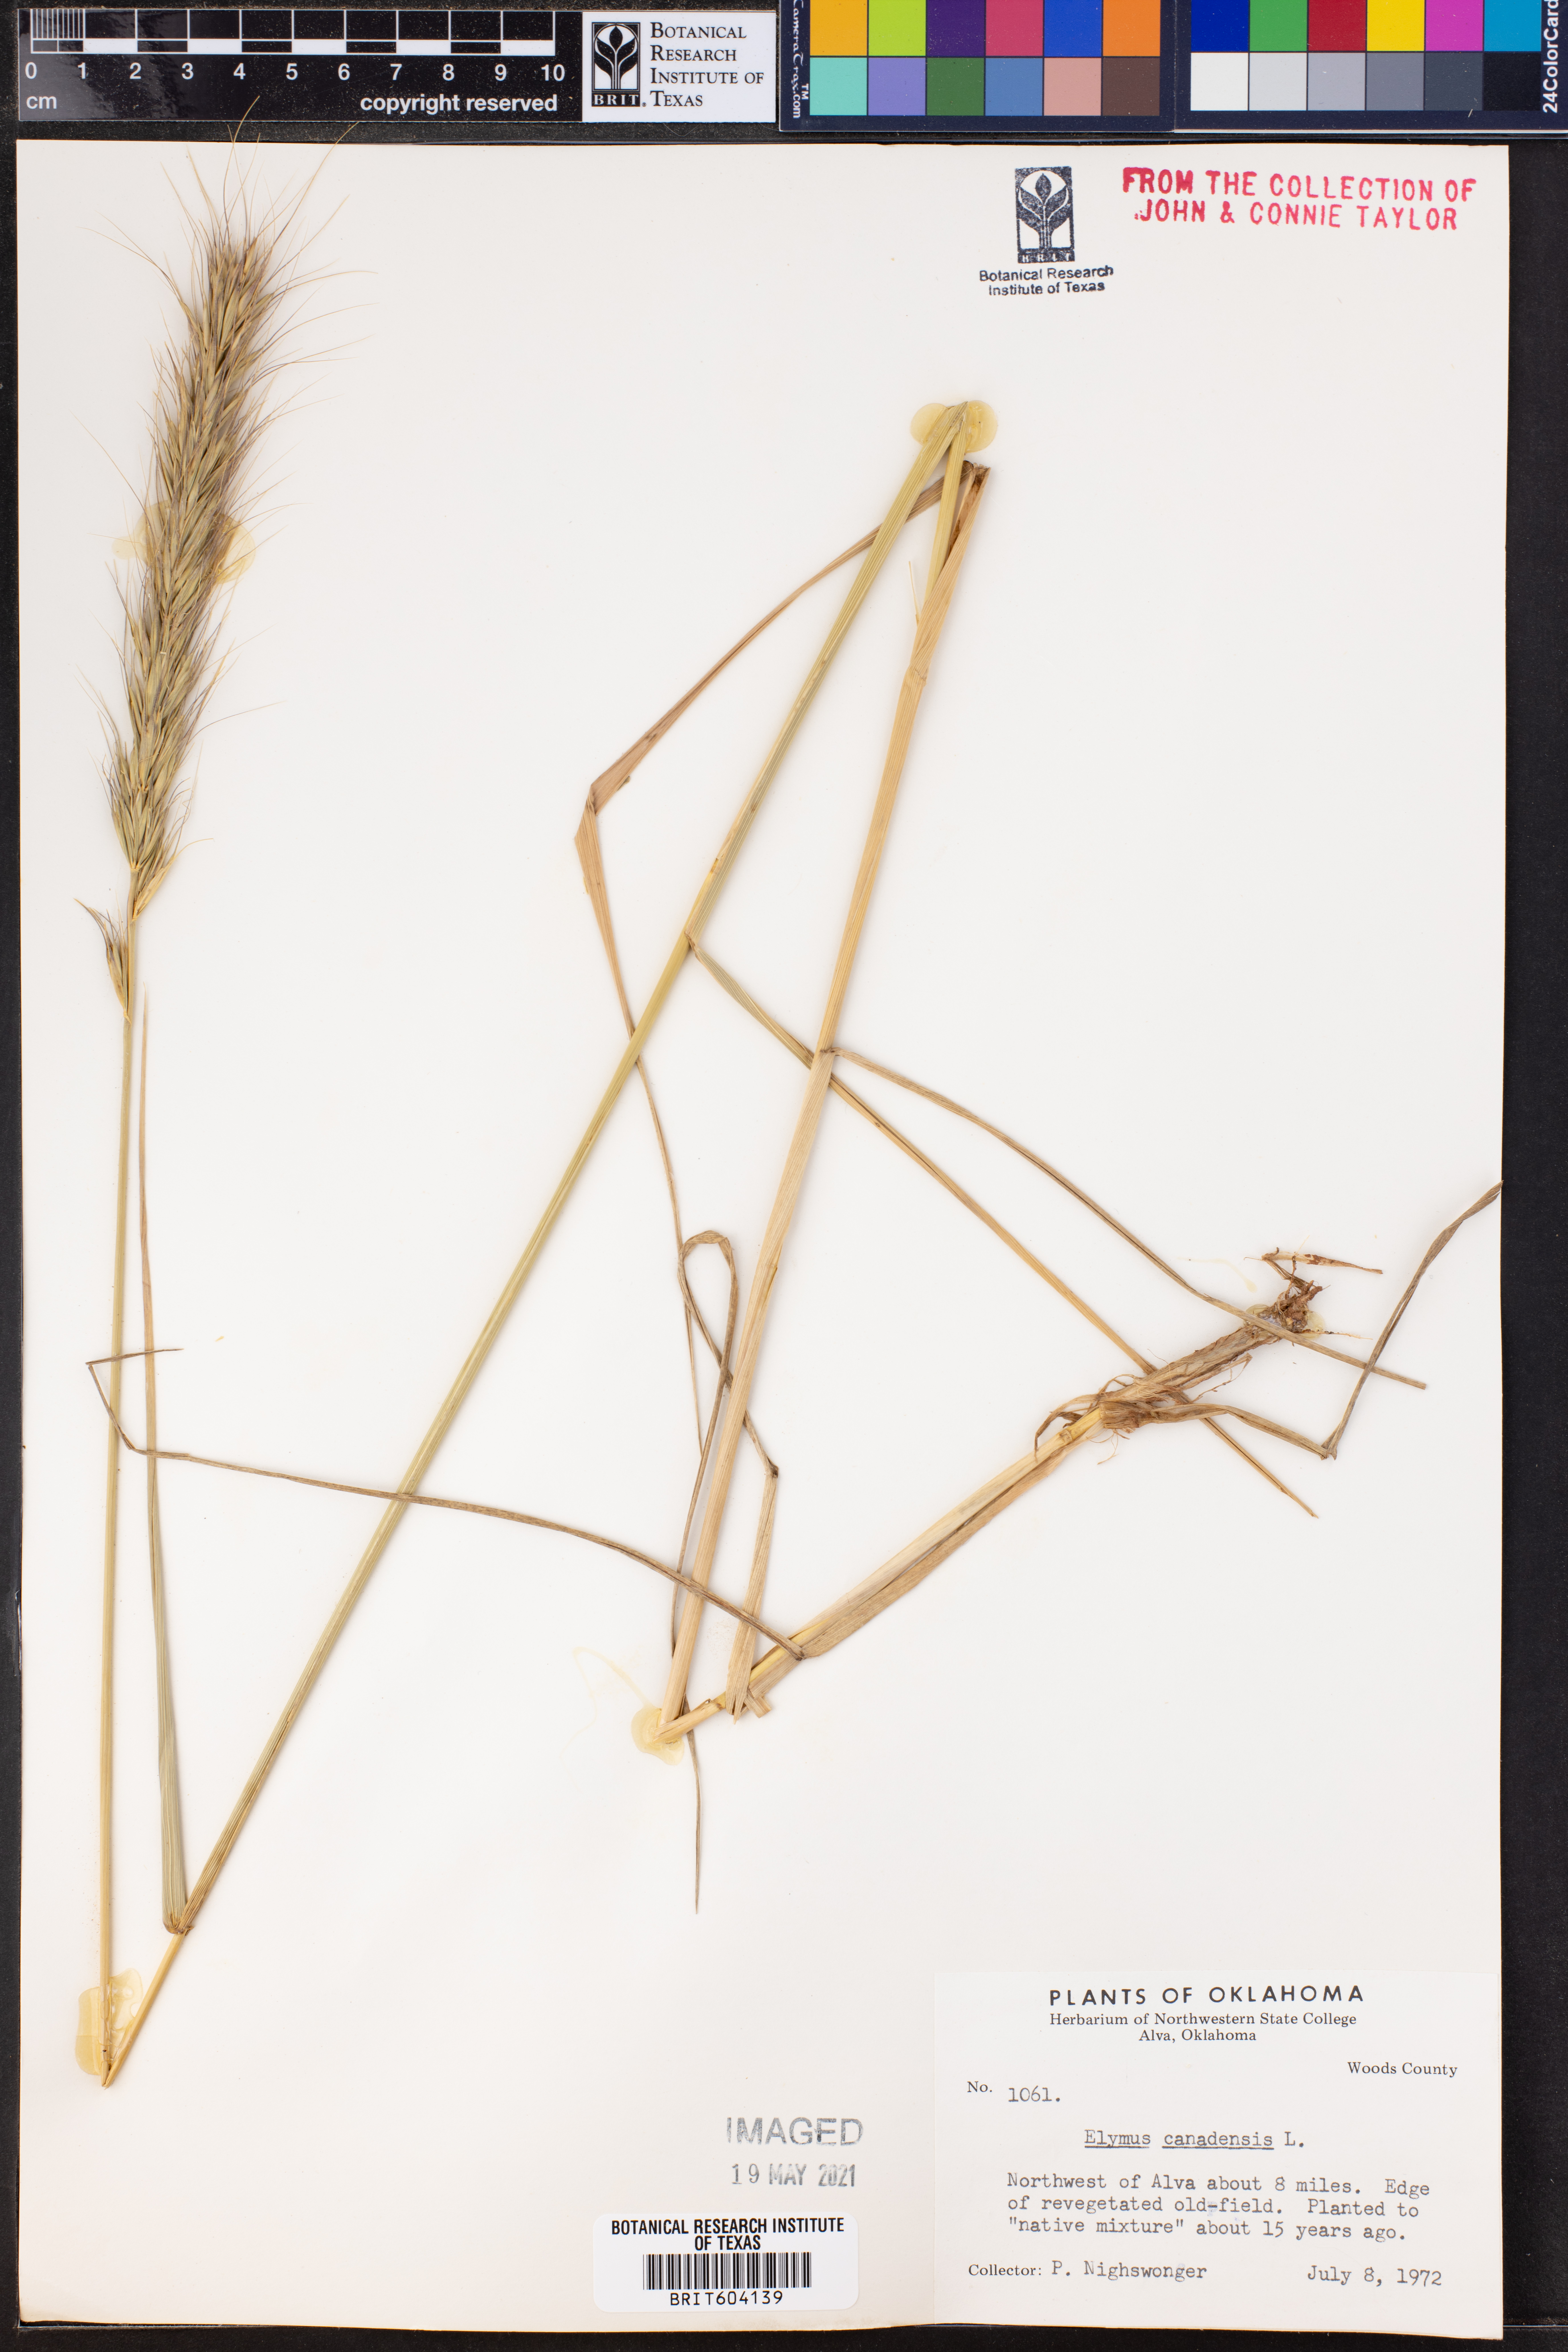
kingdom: Plantae
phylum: Tracheophyta
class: Liliopsida
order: Poales
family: Poaceae
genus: Elymus
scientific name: Elymus canadensis
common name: Canada wild rye
